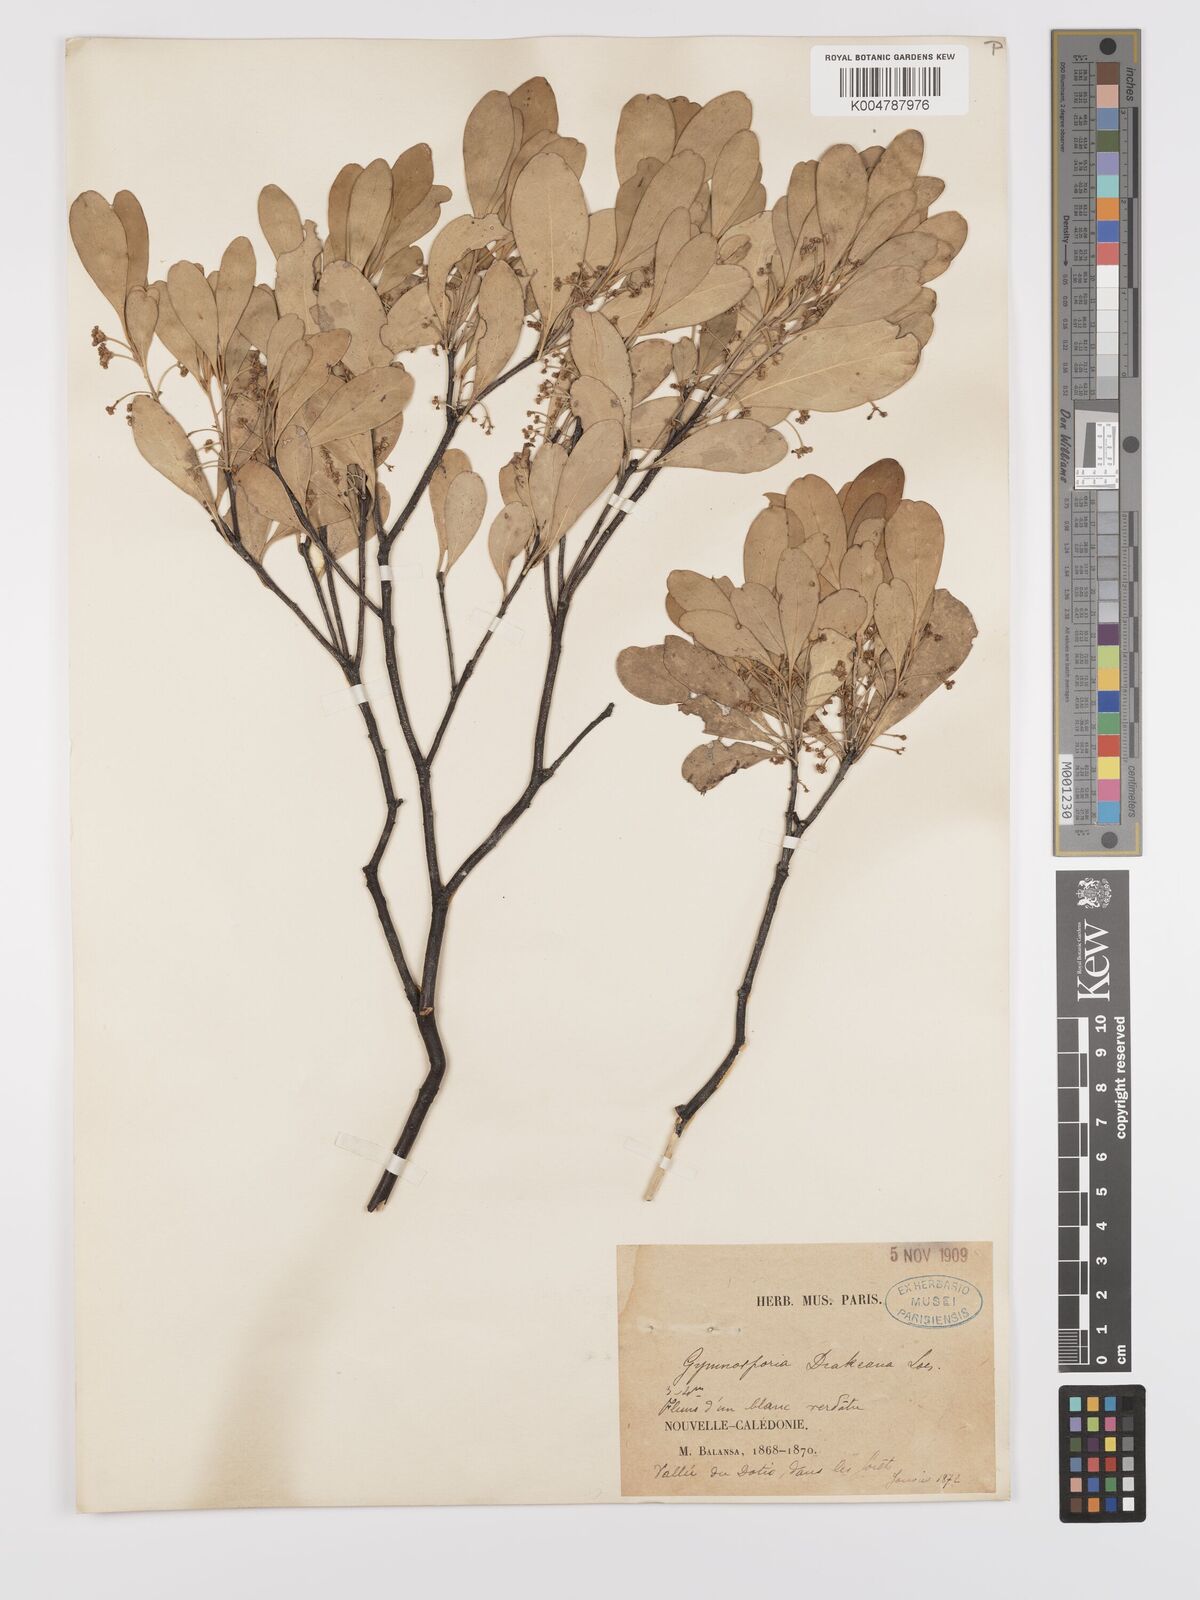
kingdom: Plantae
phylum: Tracheophyta
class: Magnoliopsida
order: Celastrales
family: Celastraceae
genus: Denhamia
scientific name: Denhamia fournieri
